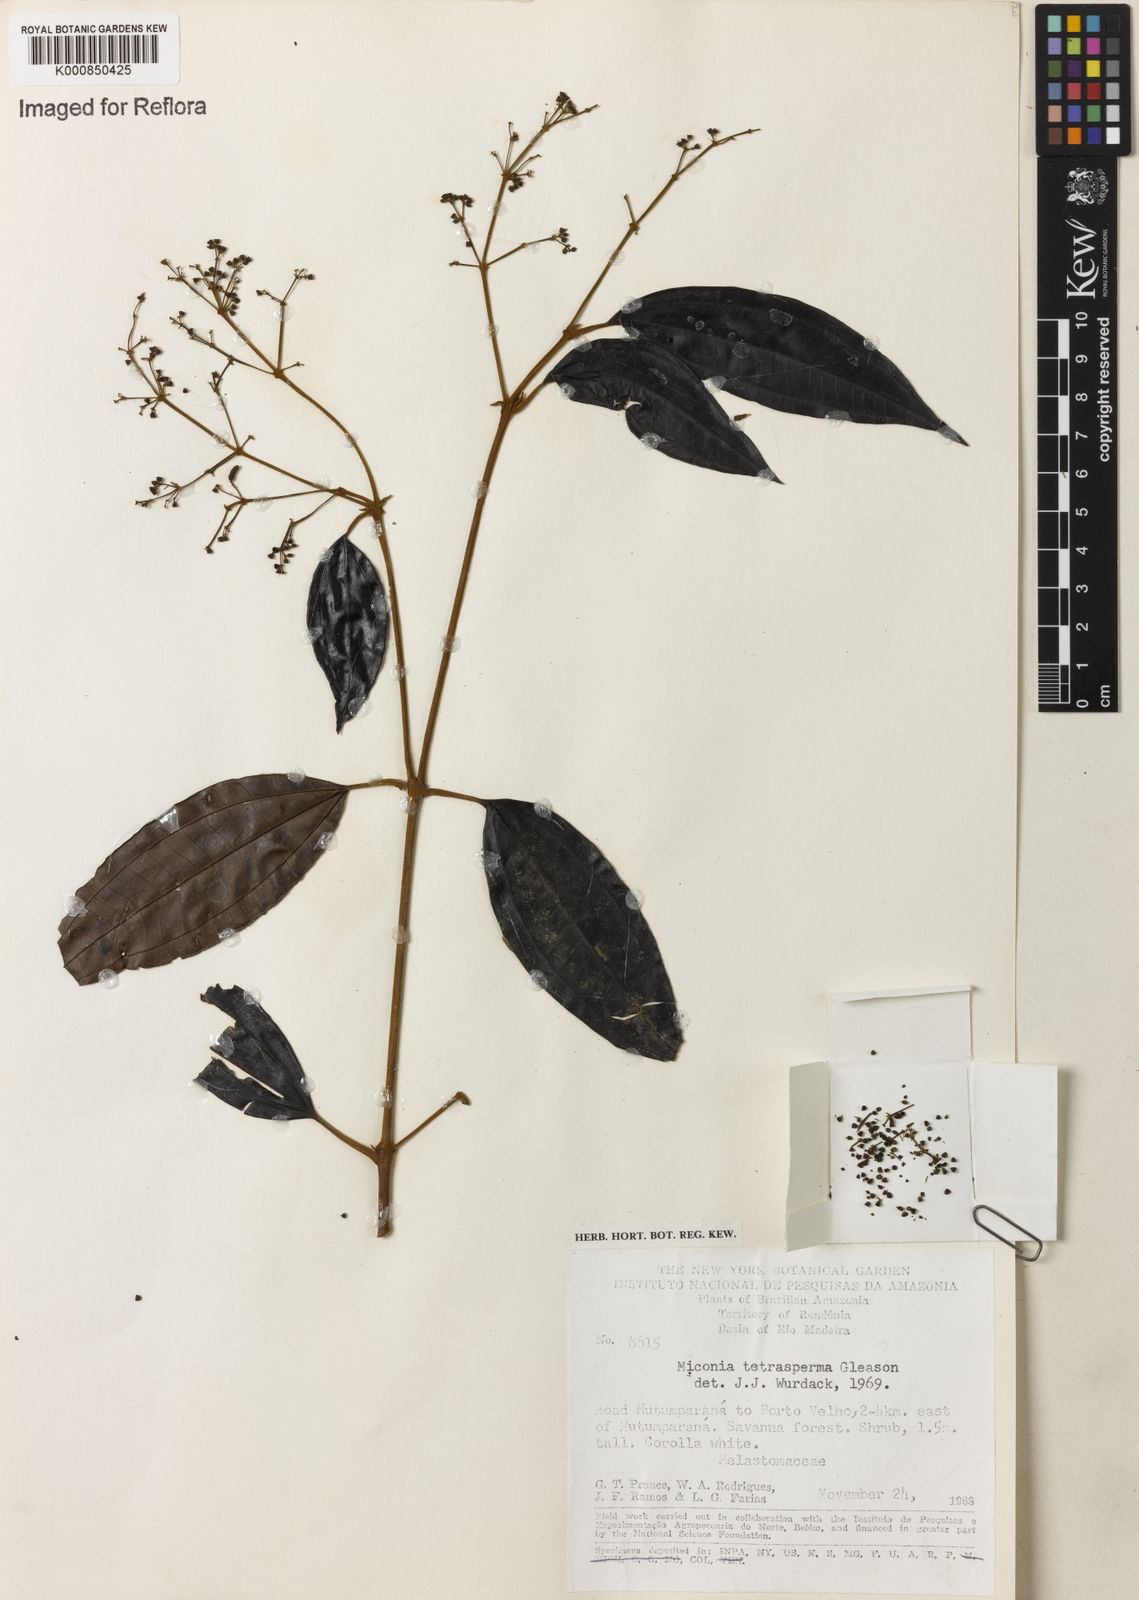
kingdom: Plantae
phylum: Tracheophyta
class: Magnoliopsida
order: Myrtales
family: Melastomataceae
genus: Miconia
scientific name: Miconia tetrasperma
